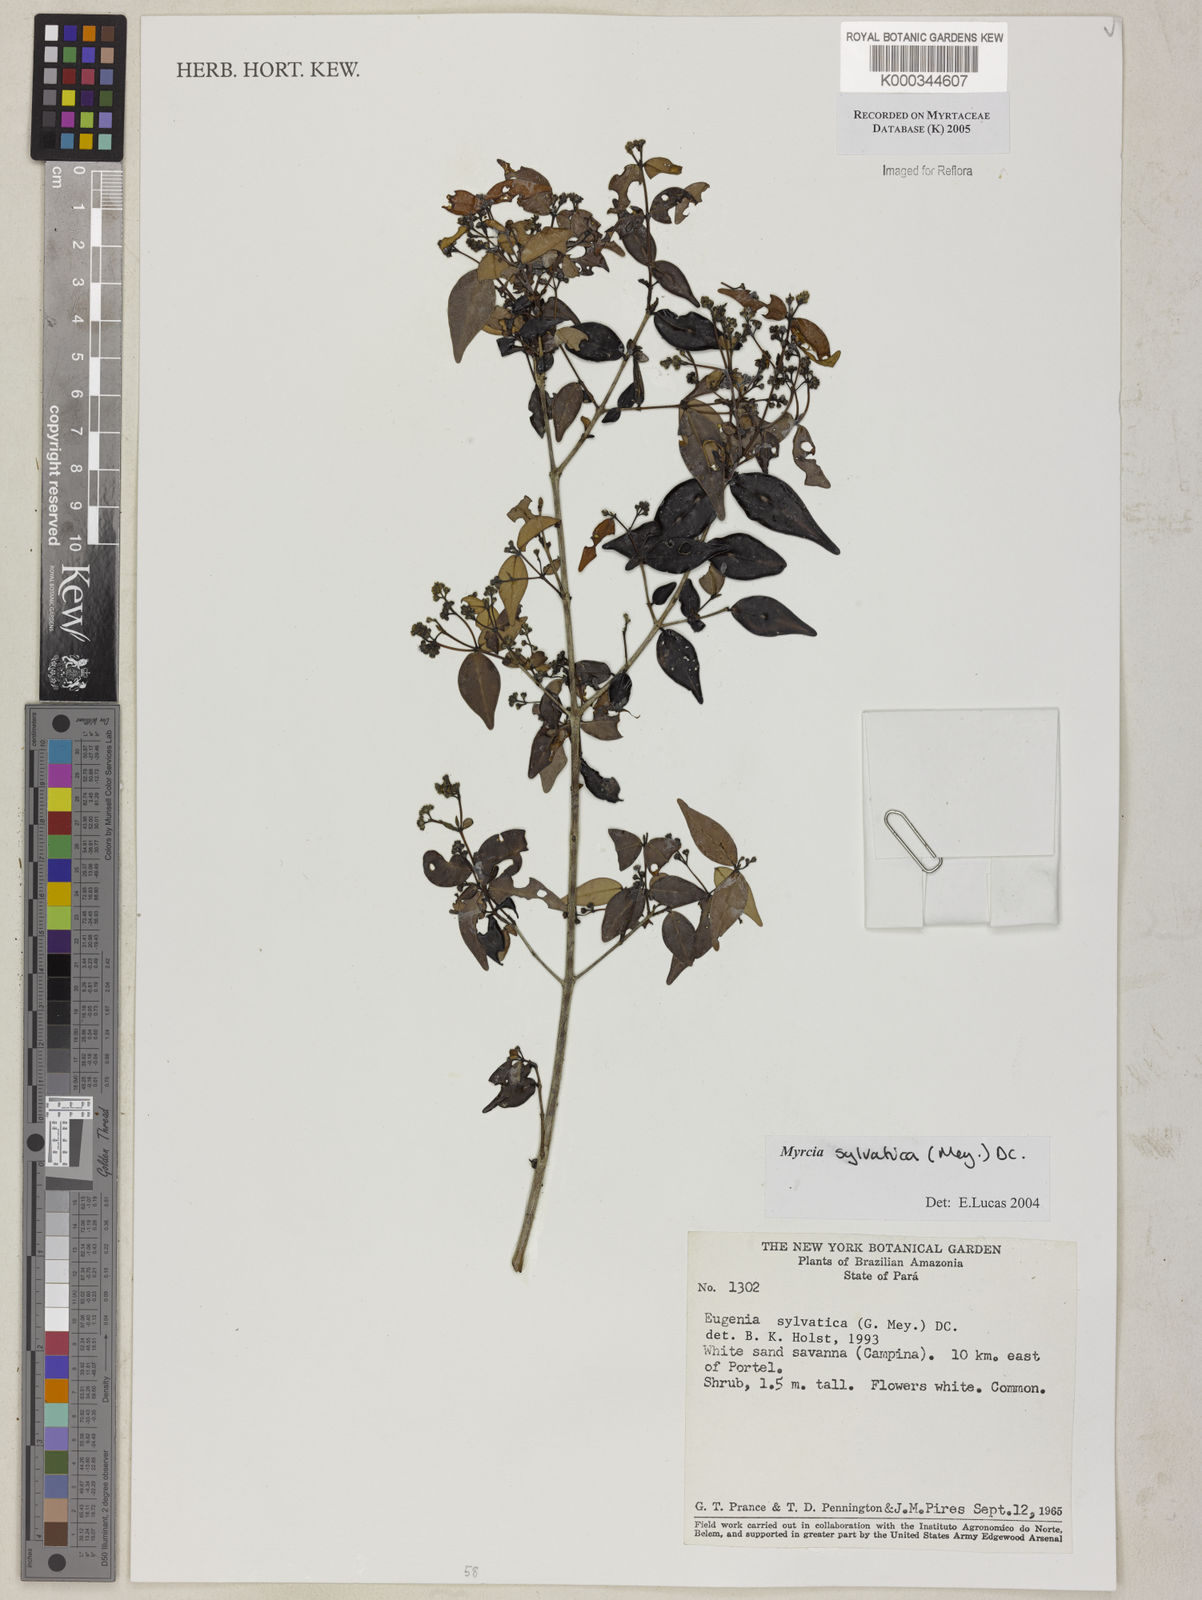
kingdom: Plantae
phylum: Tracheophyta
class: Magnoliopsida
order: Myrtales
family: Myrtaceae
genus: Myrcia
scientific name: Myrcia sylvatica
